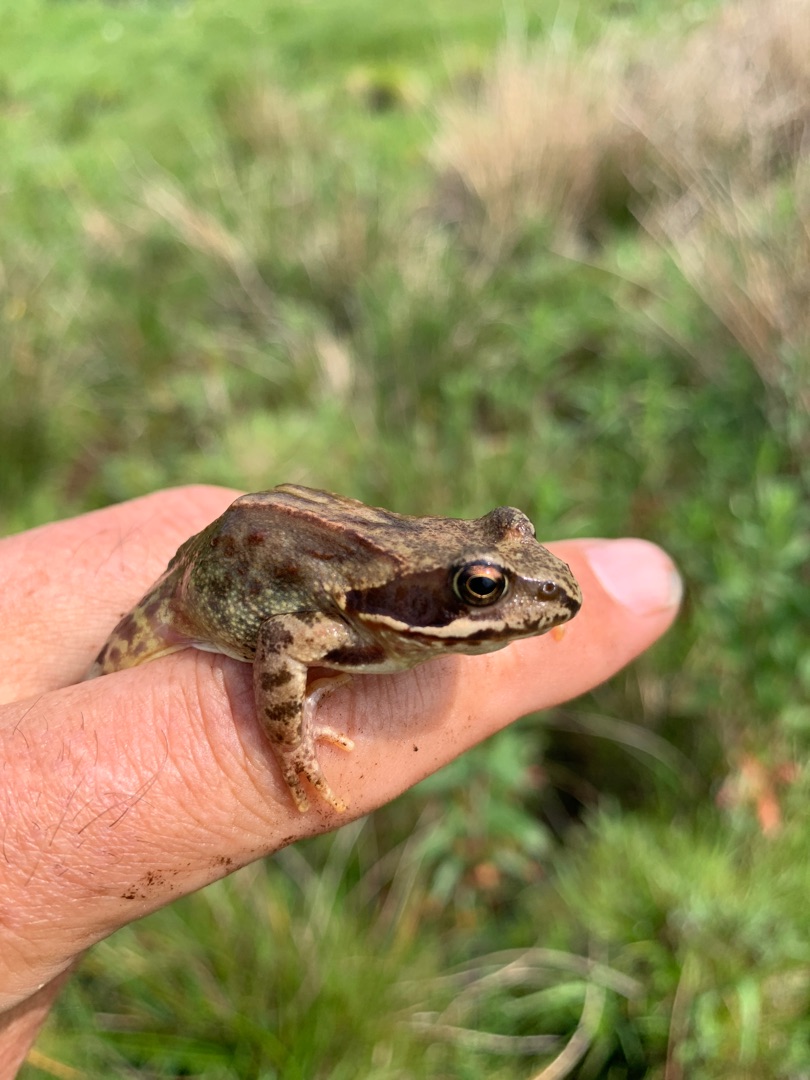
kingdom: Animalia
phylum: Chordata
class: Amphibia
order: Anura
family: Ranidae
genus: Rana
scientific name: Rana temporaria
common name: Butsnudet frø
